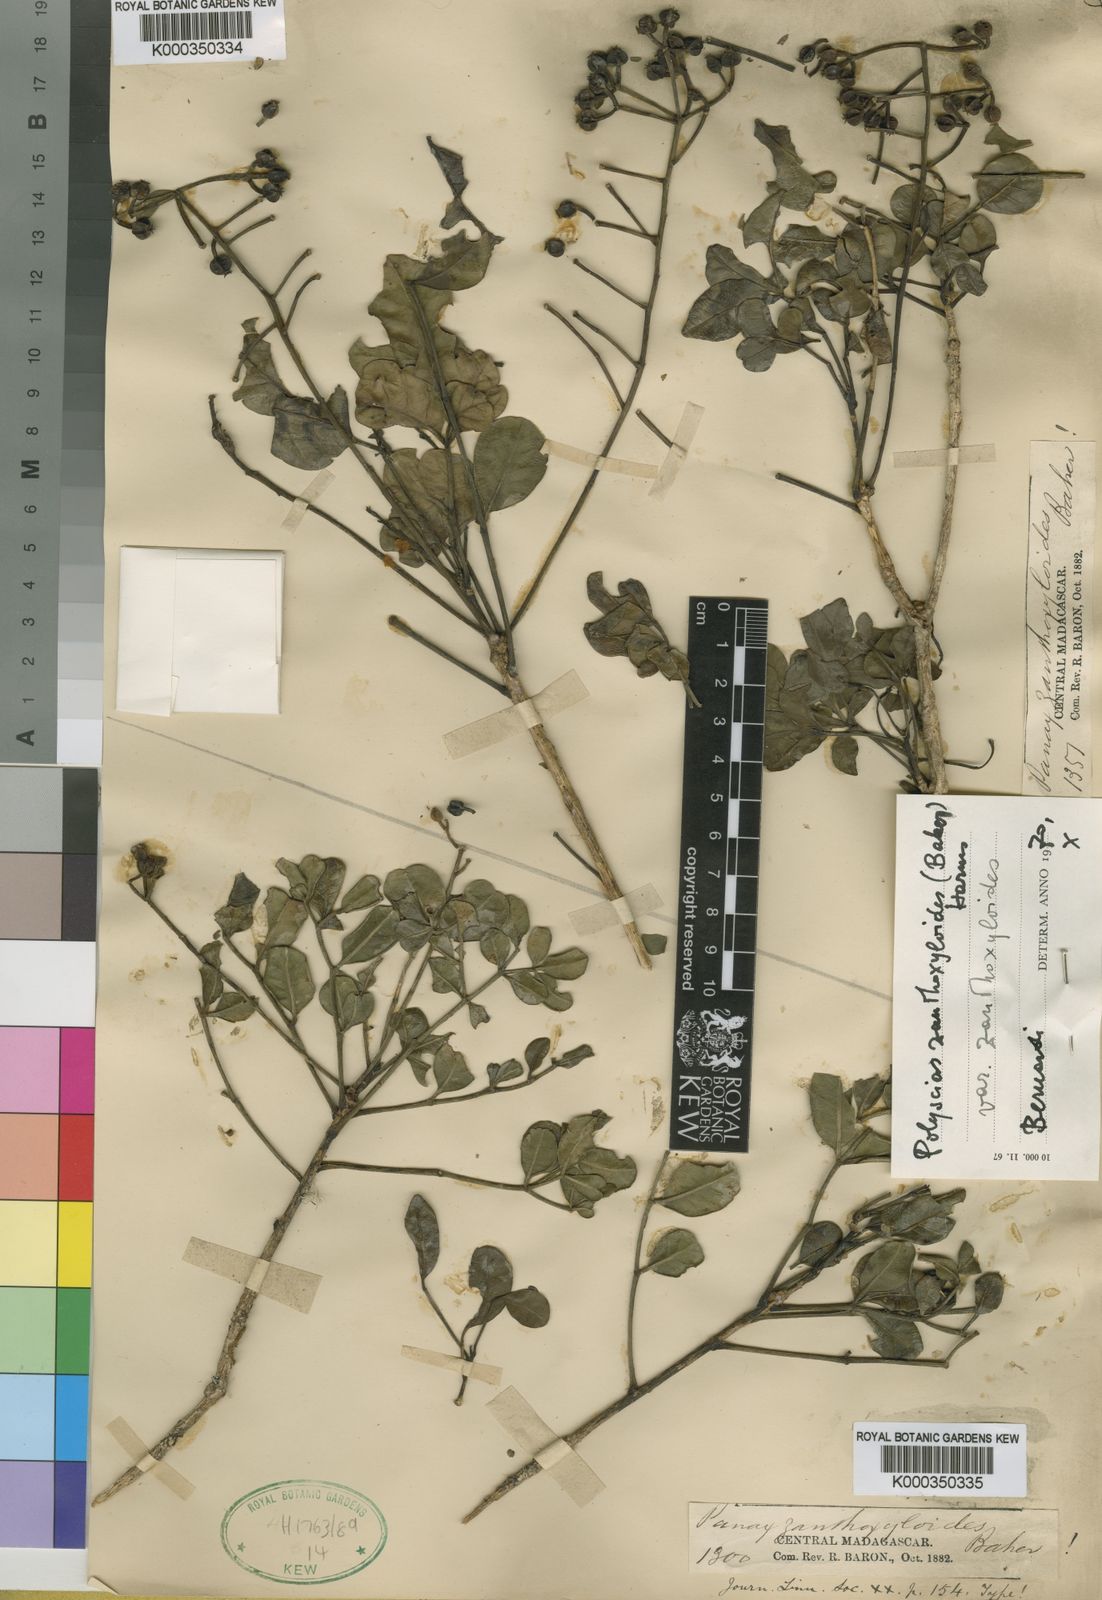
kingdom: Plantae
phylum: Tracheophyta
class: Magnoliopsida
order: Apiales
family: Araliaceae
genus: Polyscias
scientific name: Polyscias zanthoxyloides
